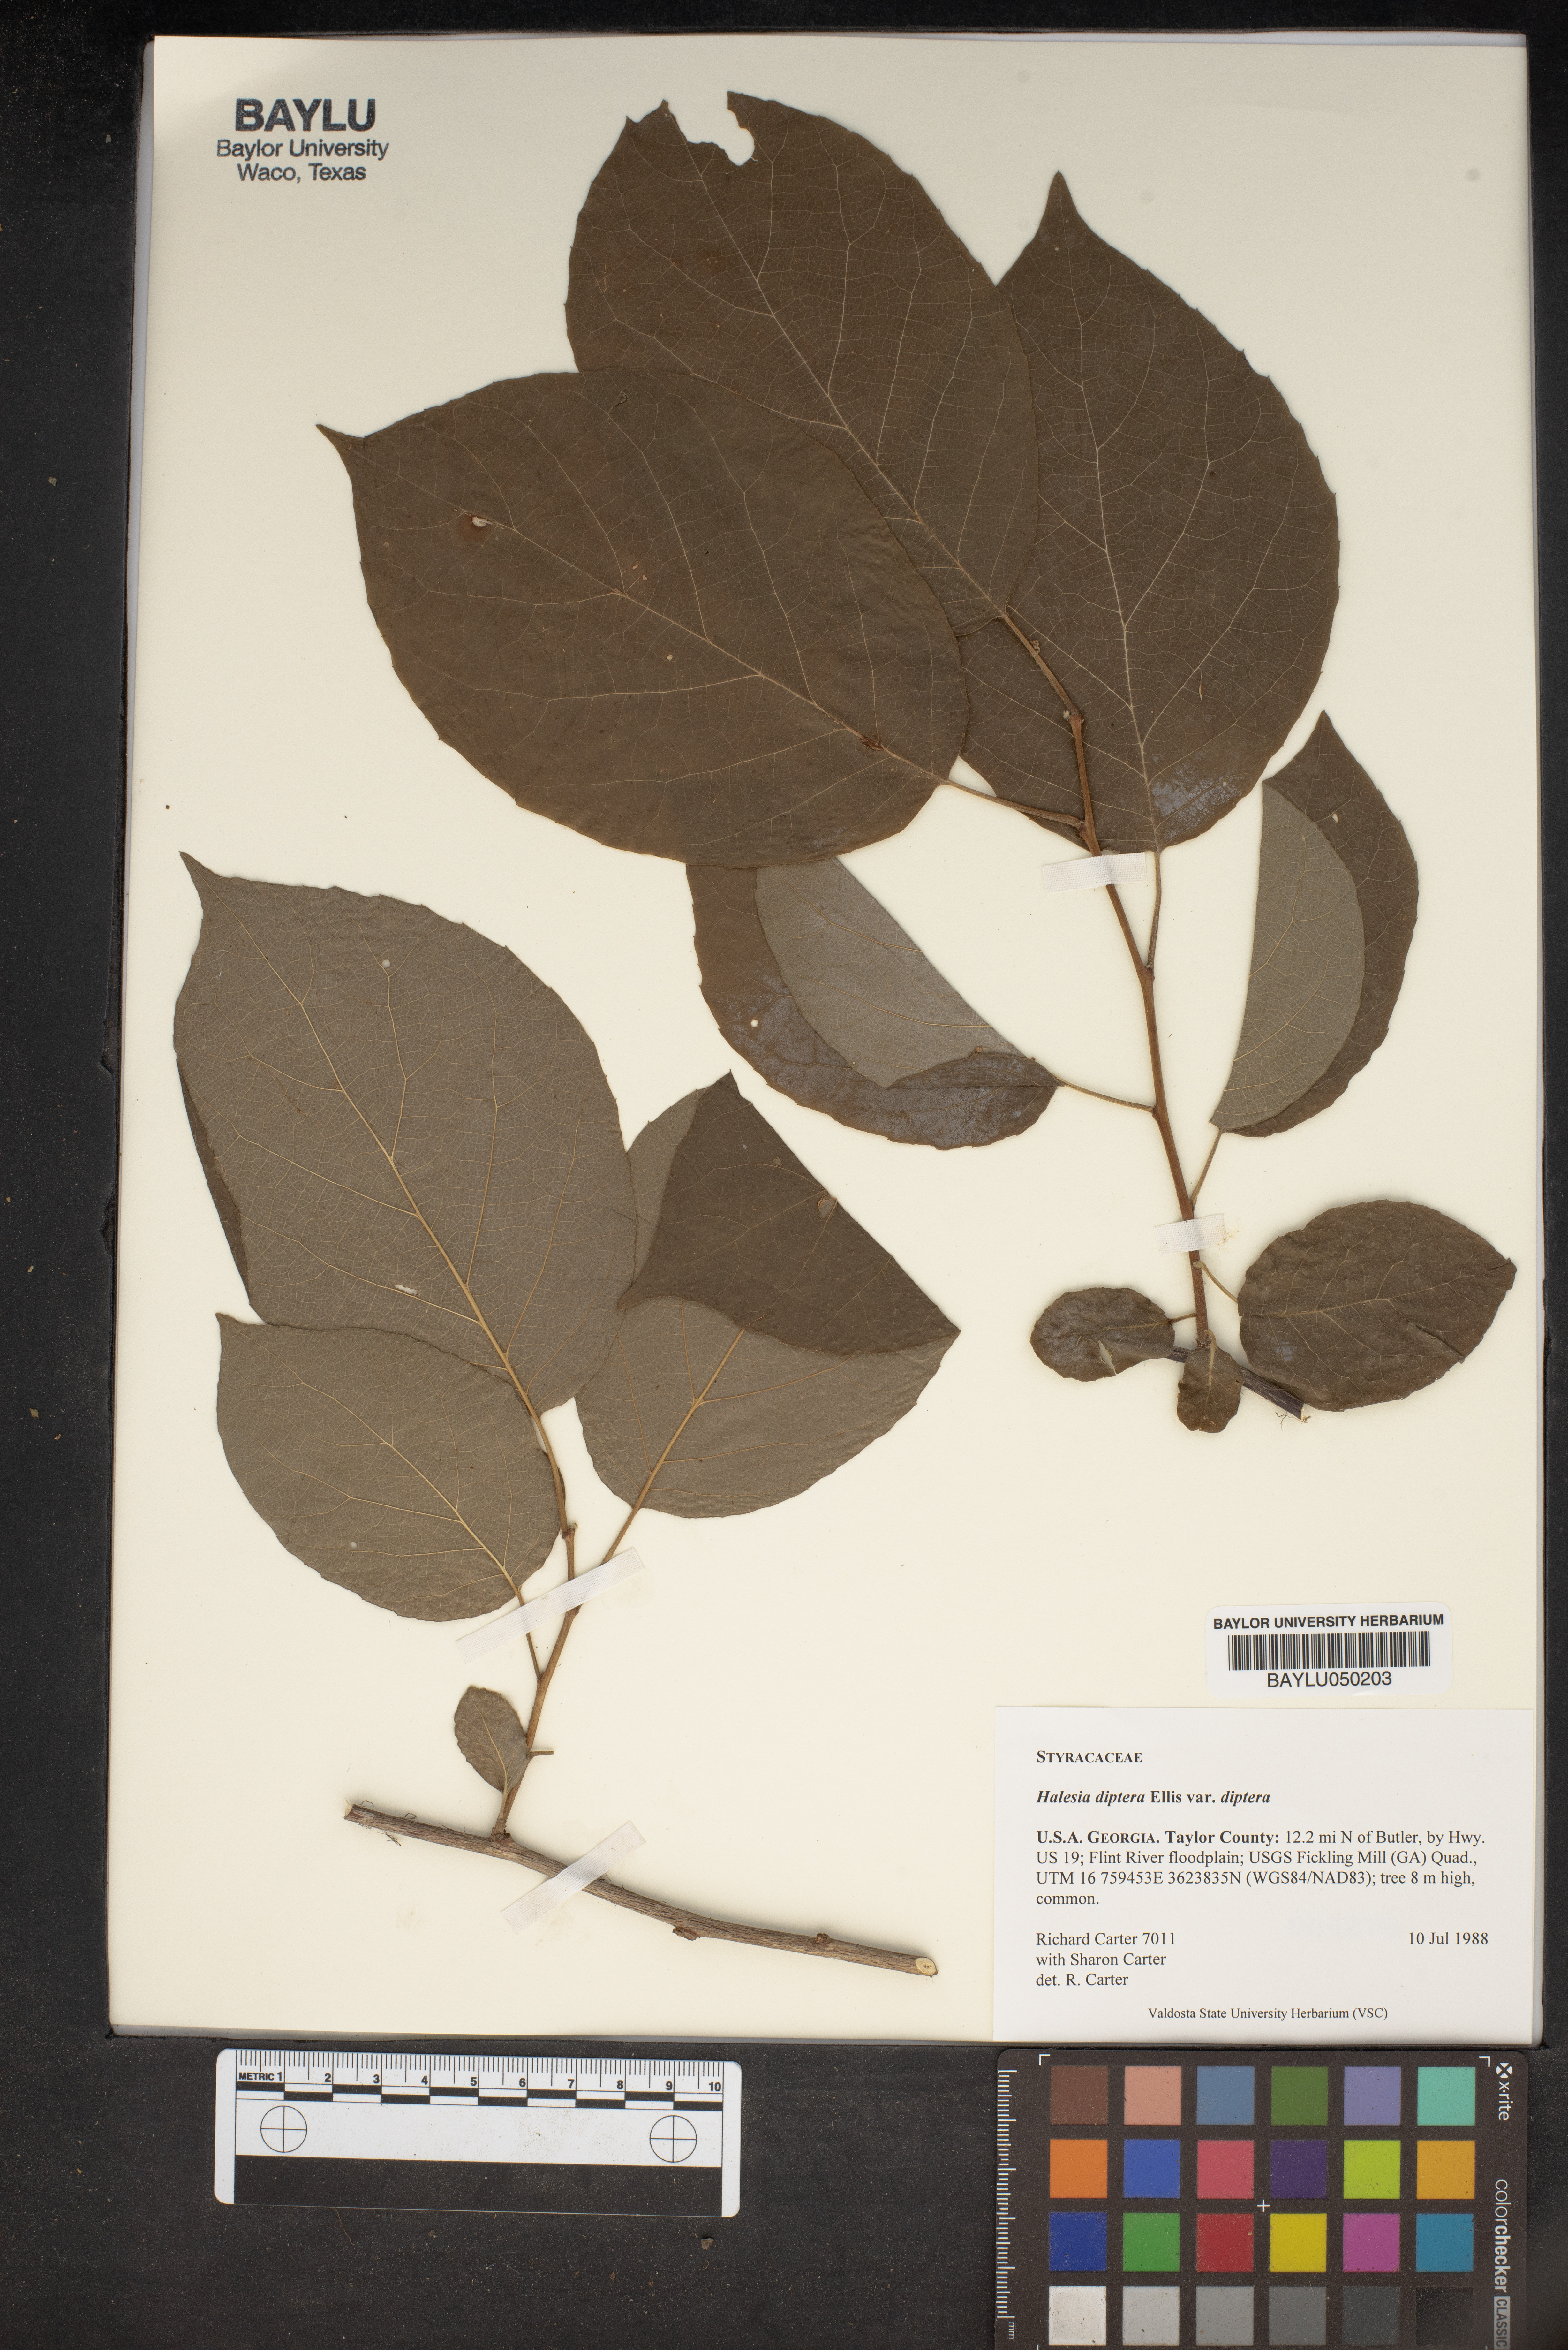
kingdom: Plantae
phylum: Tracheophyta
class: Magnoliopsida
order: Ericales
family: Styracaceae
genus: Halesia
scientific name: Halesia diptera
